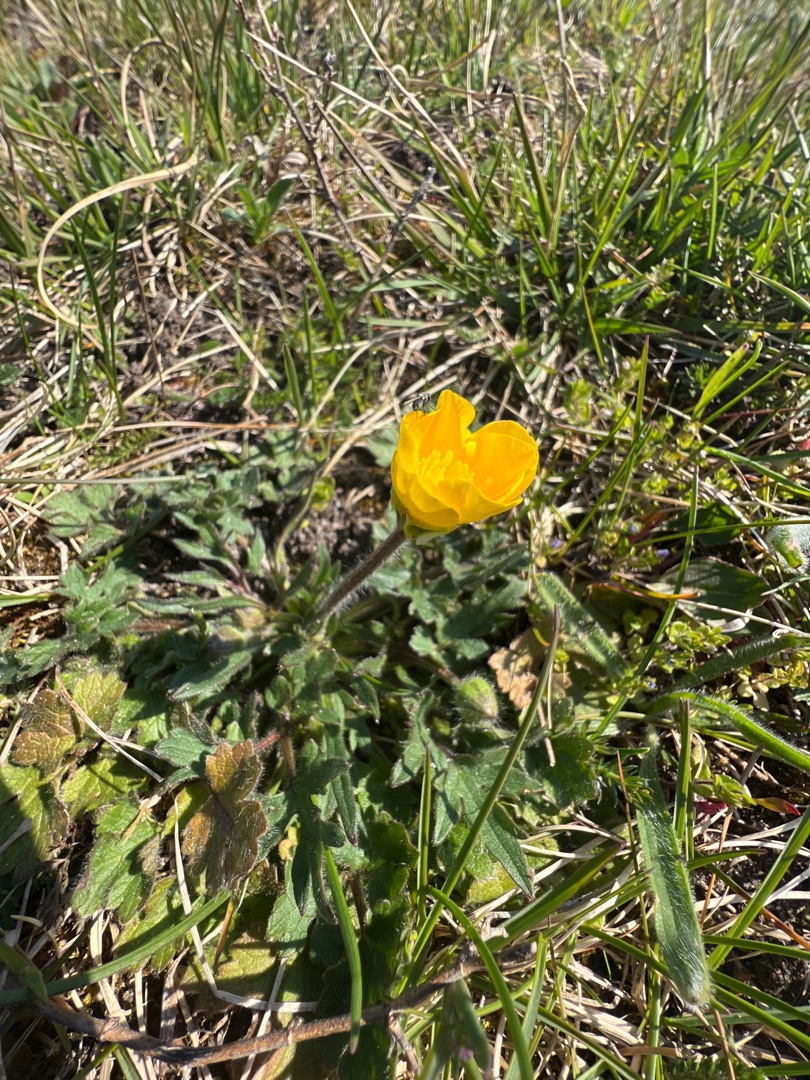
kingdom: Plantae
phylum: Tracheophyta
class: Magnoliopsida
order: Ranunculales
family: Ranunculaceae
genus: Ranunculus
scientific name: Ranunculus bulbosus
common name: Knold-ranunkel
